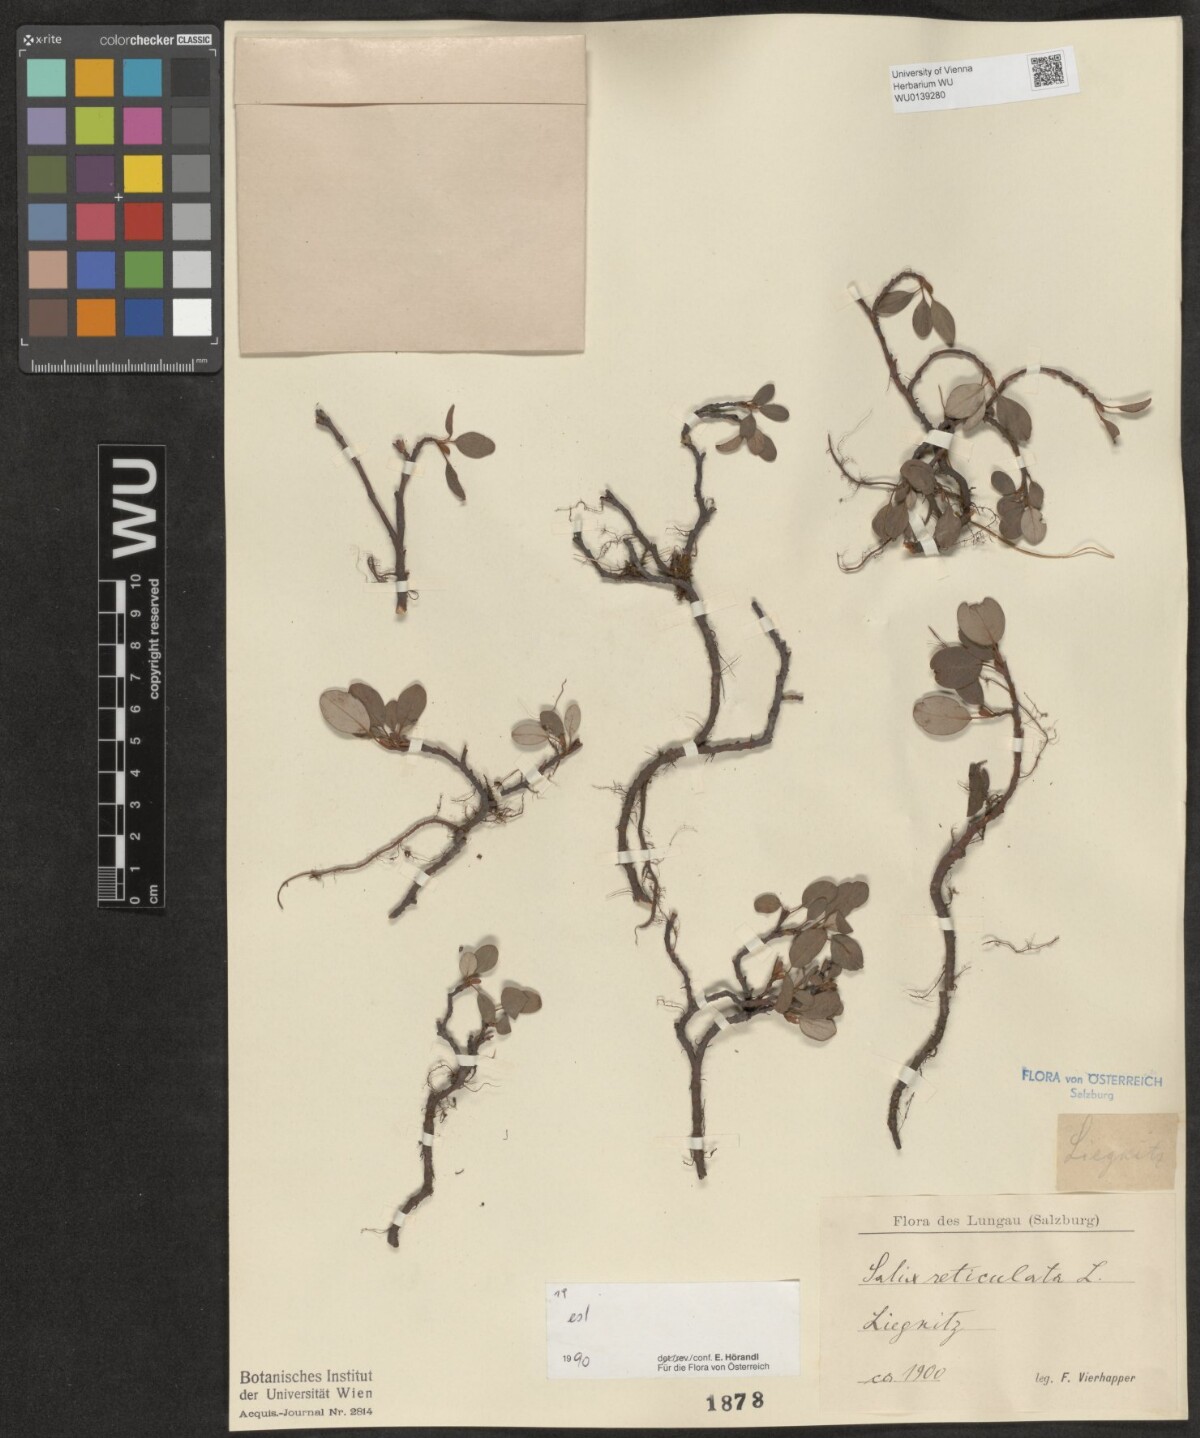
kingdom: Plantae
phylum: Tracheophyta
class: Magnoliopsida
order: Malpighiales
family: Salicaceae
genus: Salix
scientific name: Salix reticulata
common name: Net-leaved willow
